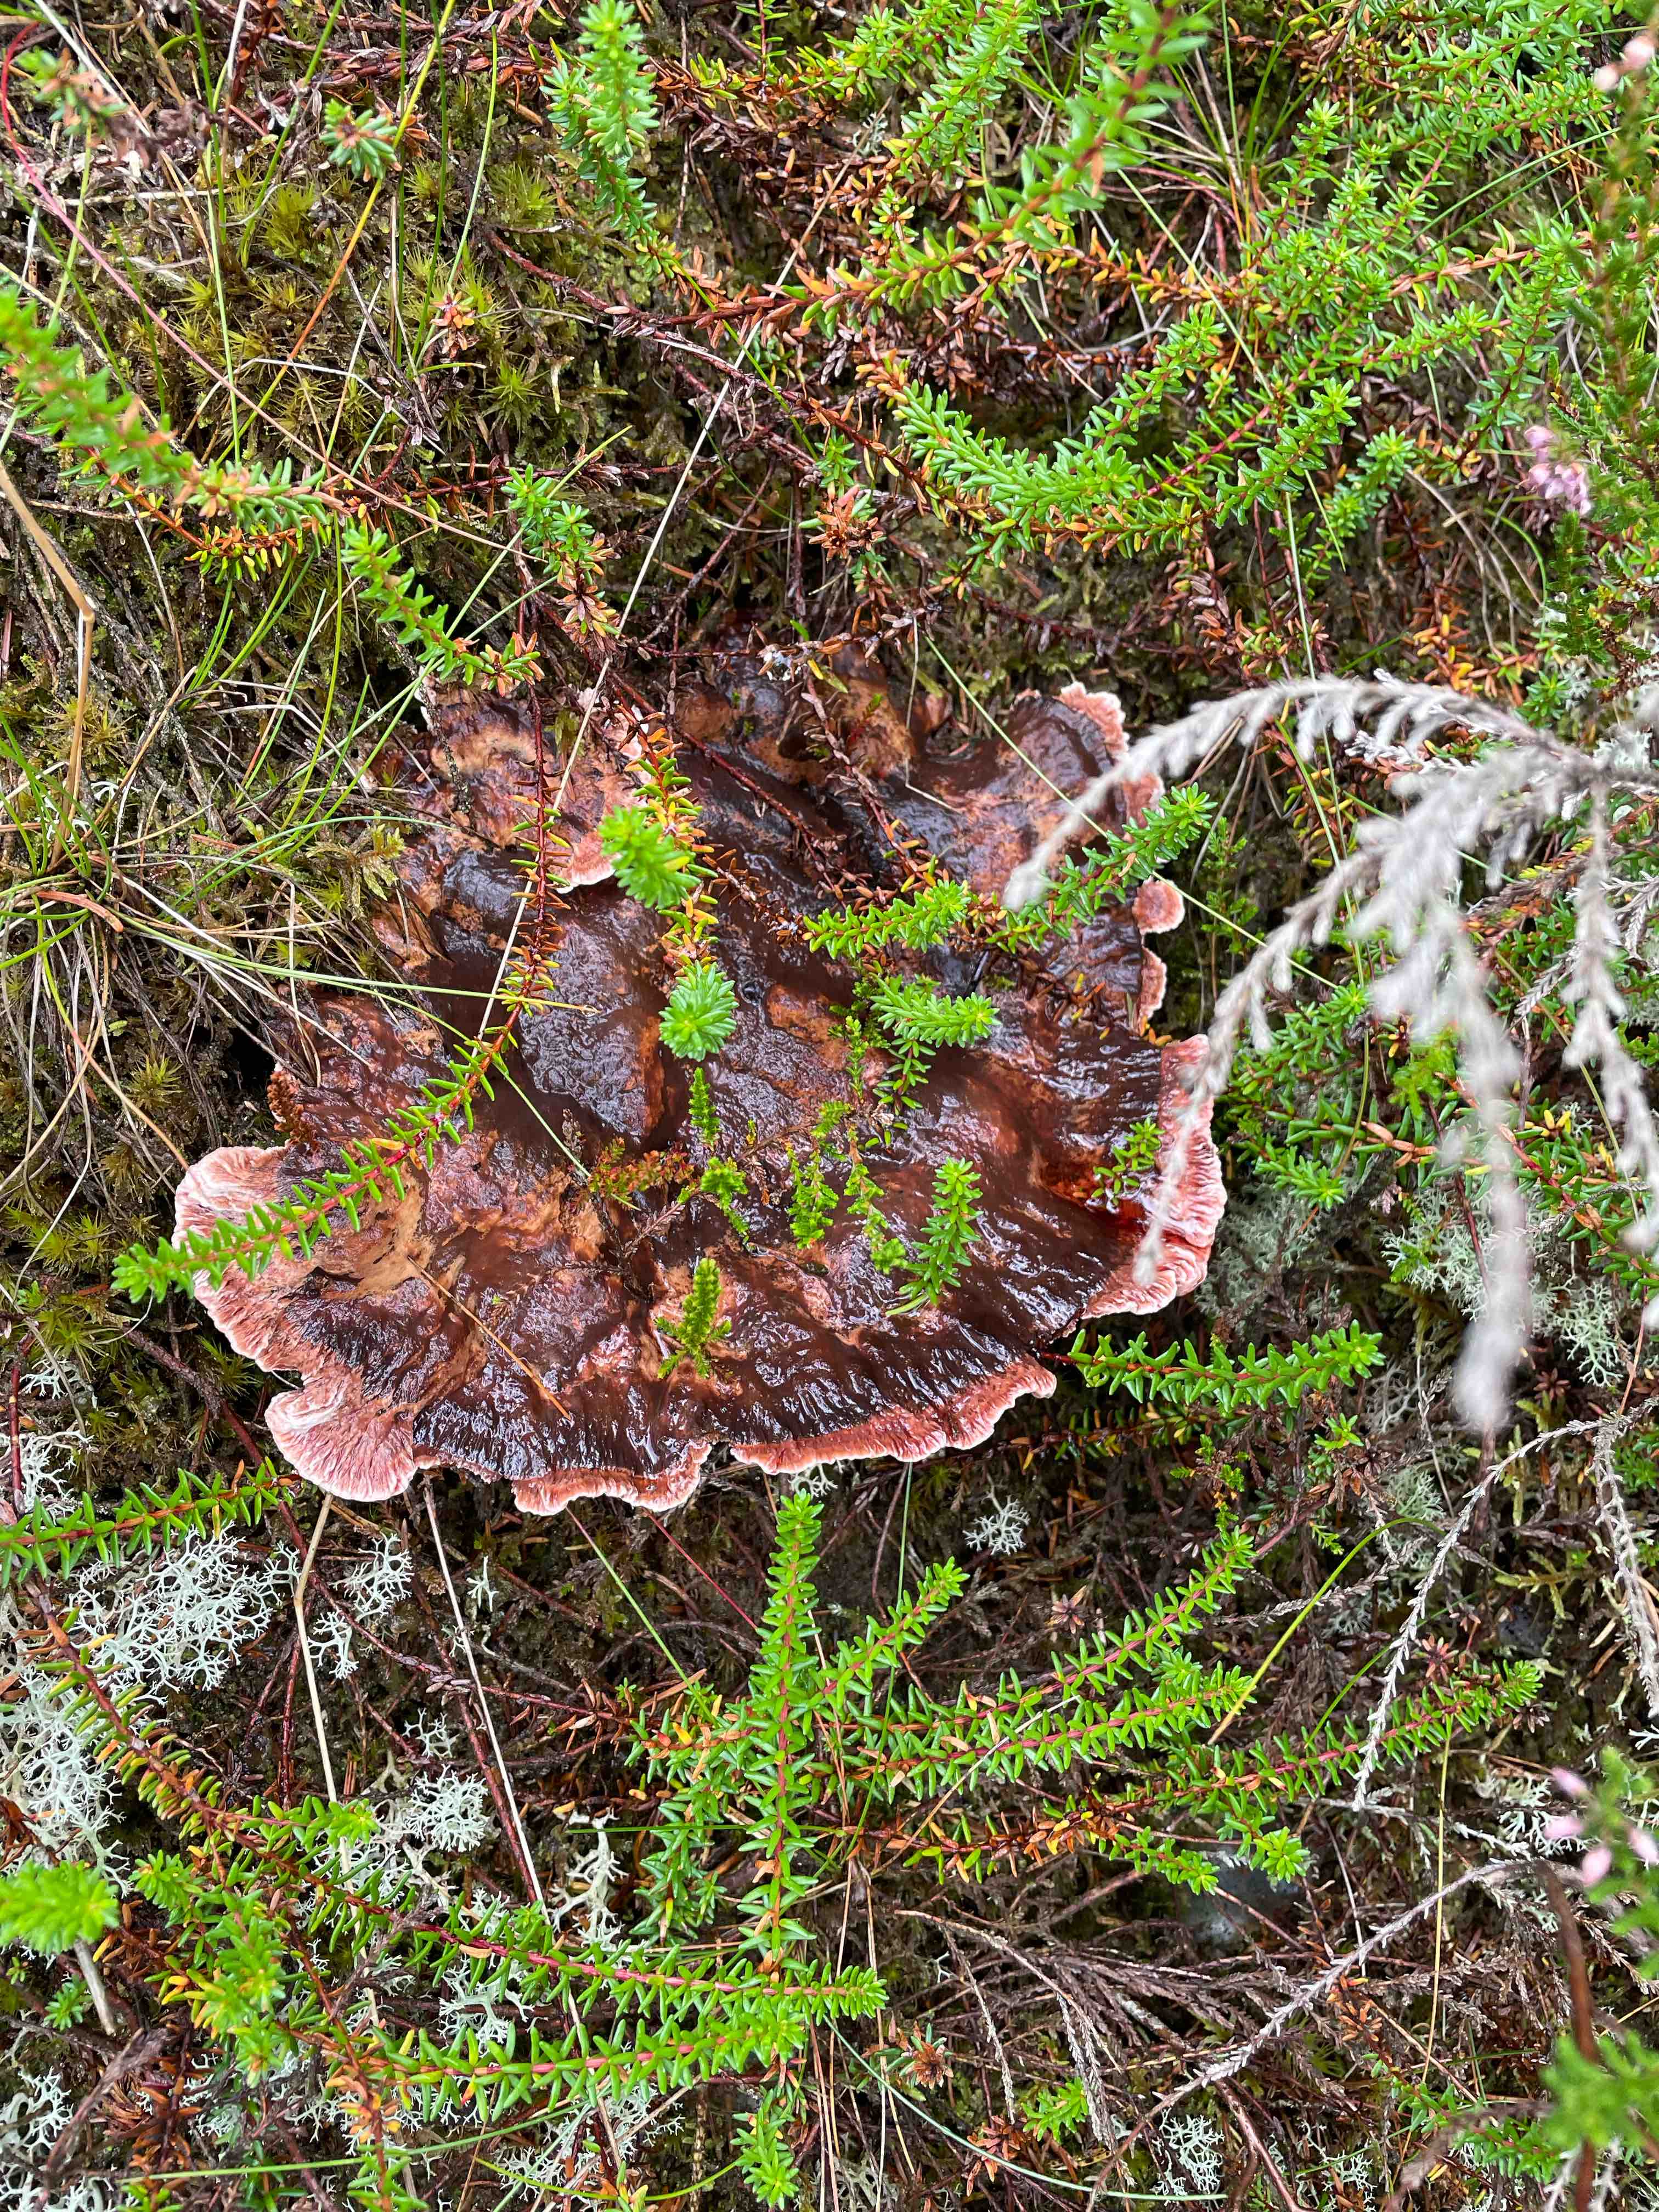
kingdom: Fungi
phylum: Basidiomycota
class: Agaricomycetes
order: Russulales
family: Bondarzewiaceae
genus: Heterobasidion
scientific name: Heterobasidion
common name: rodfordærver
